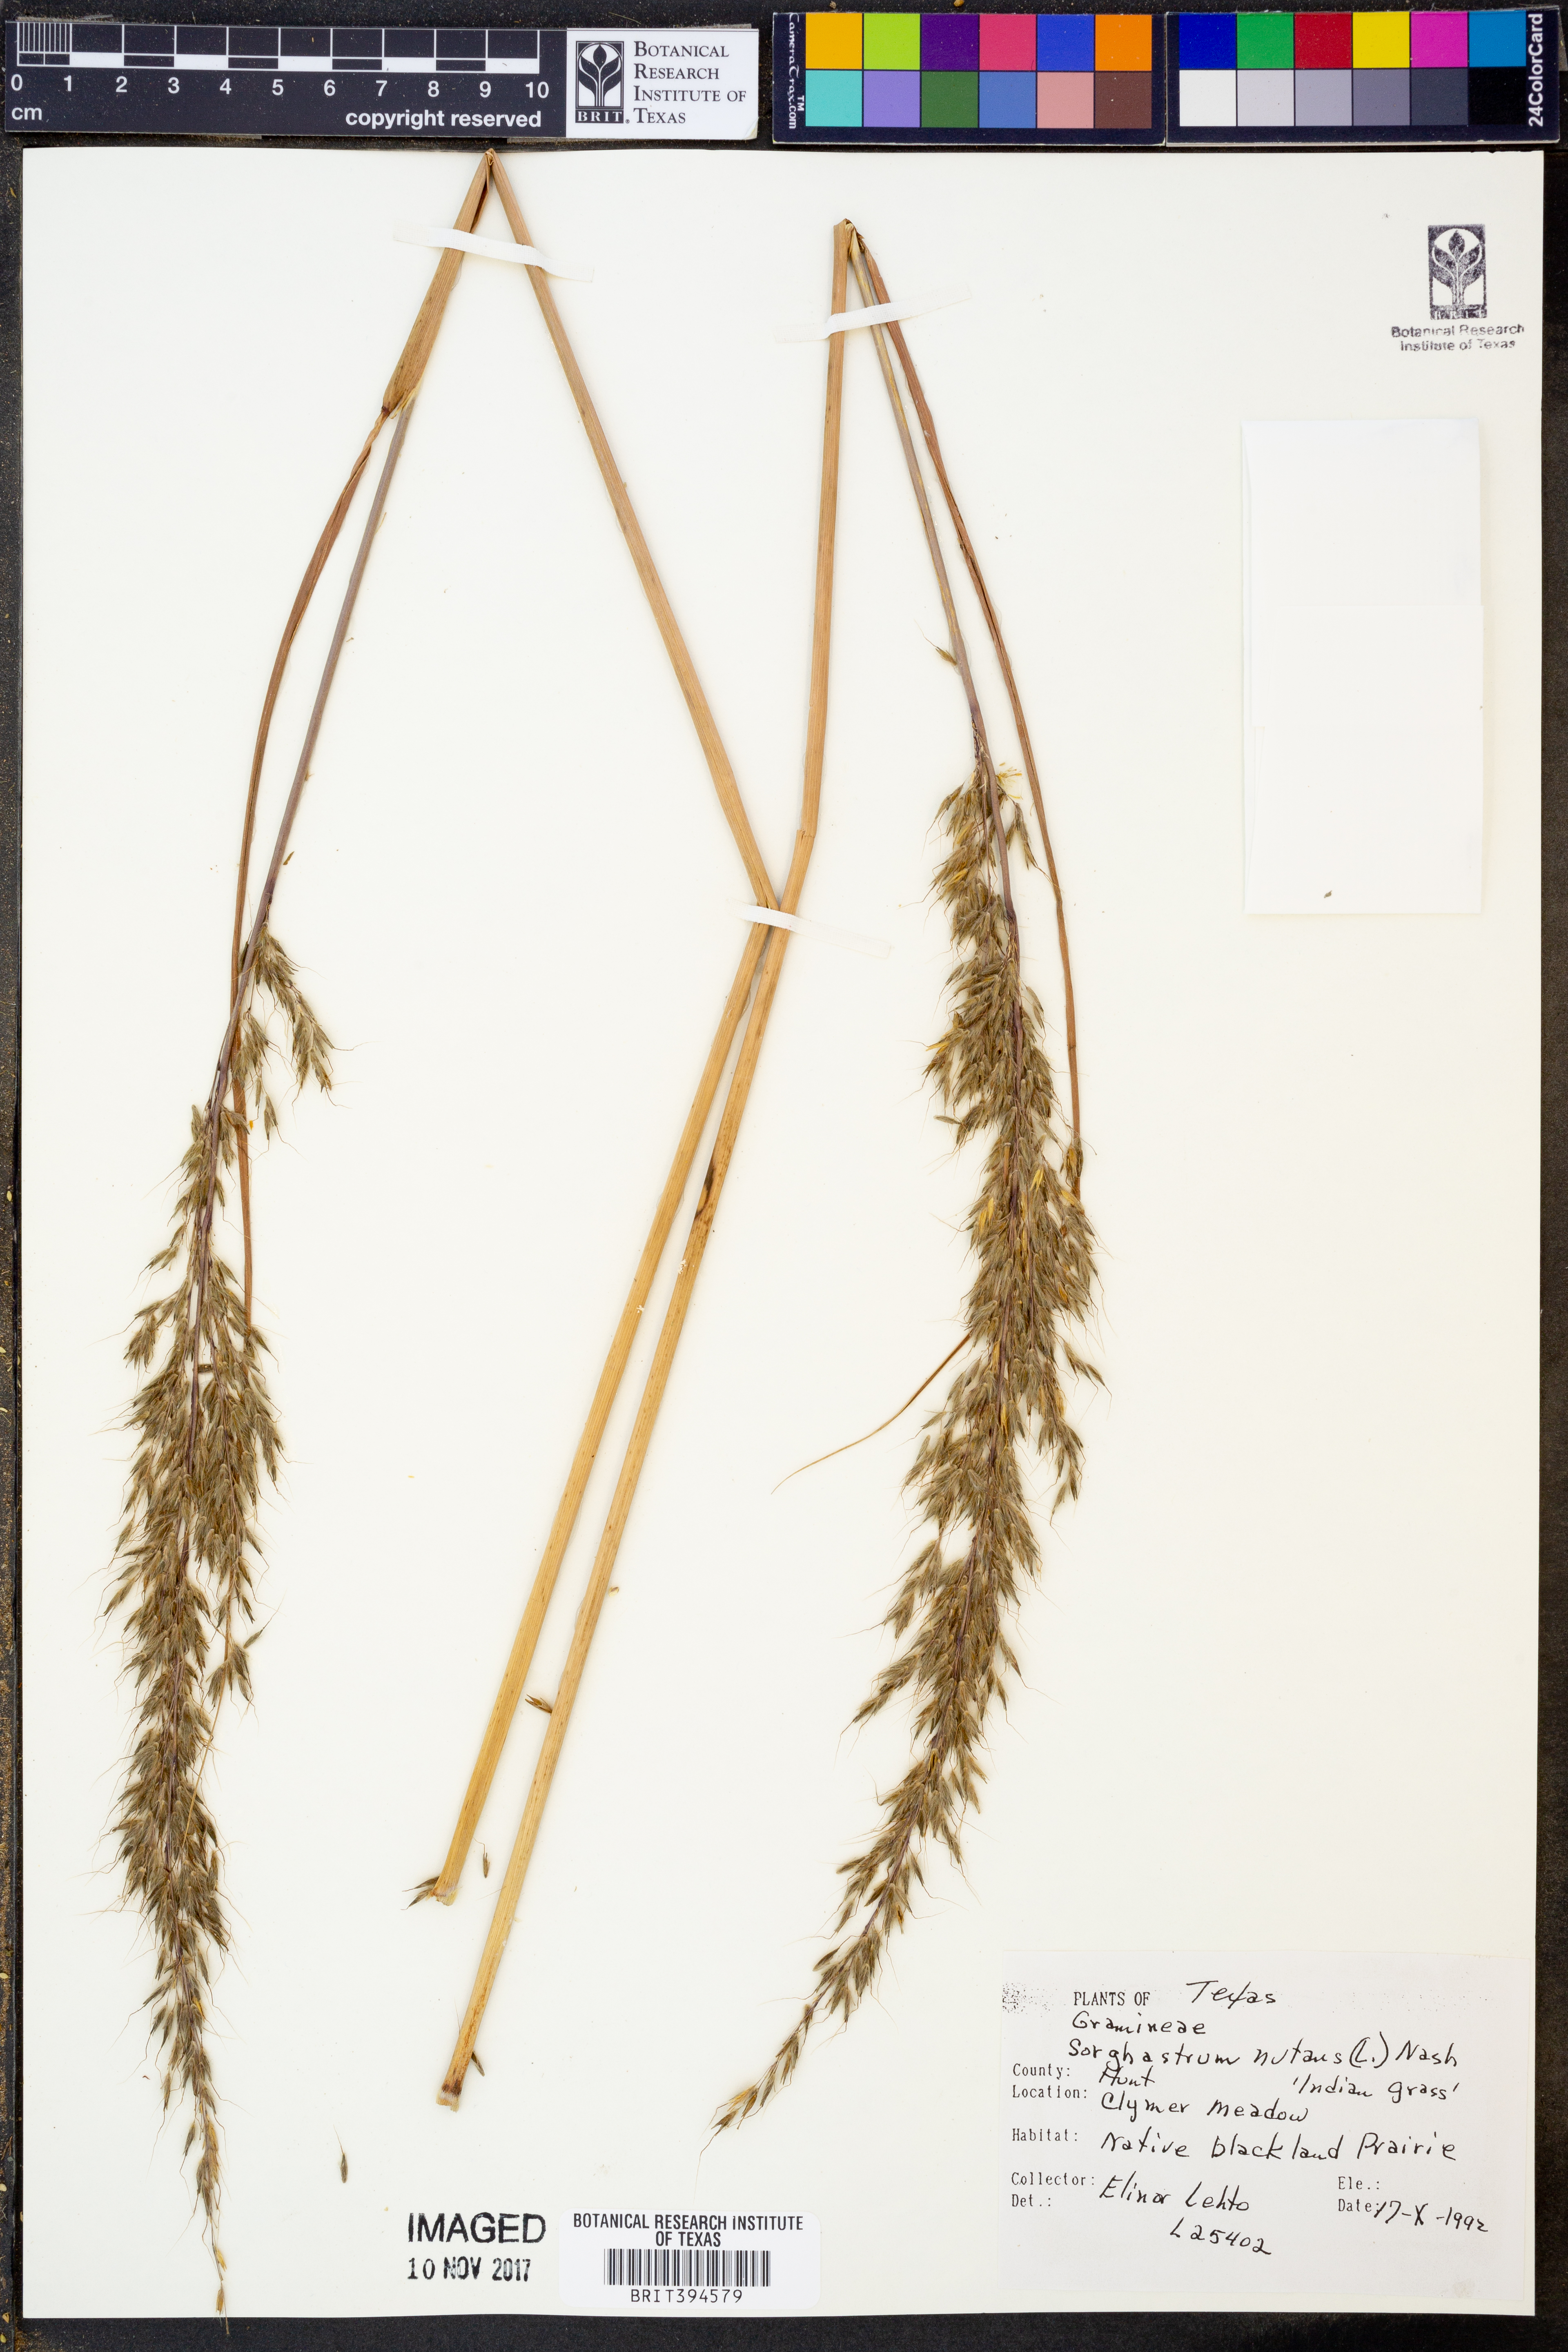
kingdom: Plantae
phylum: Tracheophyta
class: Liliopsida
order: Poales
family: Poaceae
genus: Sorghastrum
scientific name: Sorghastrum nutans
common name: Indian grass
